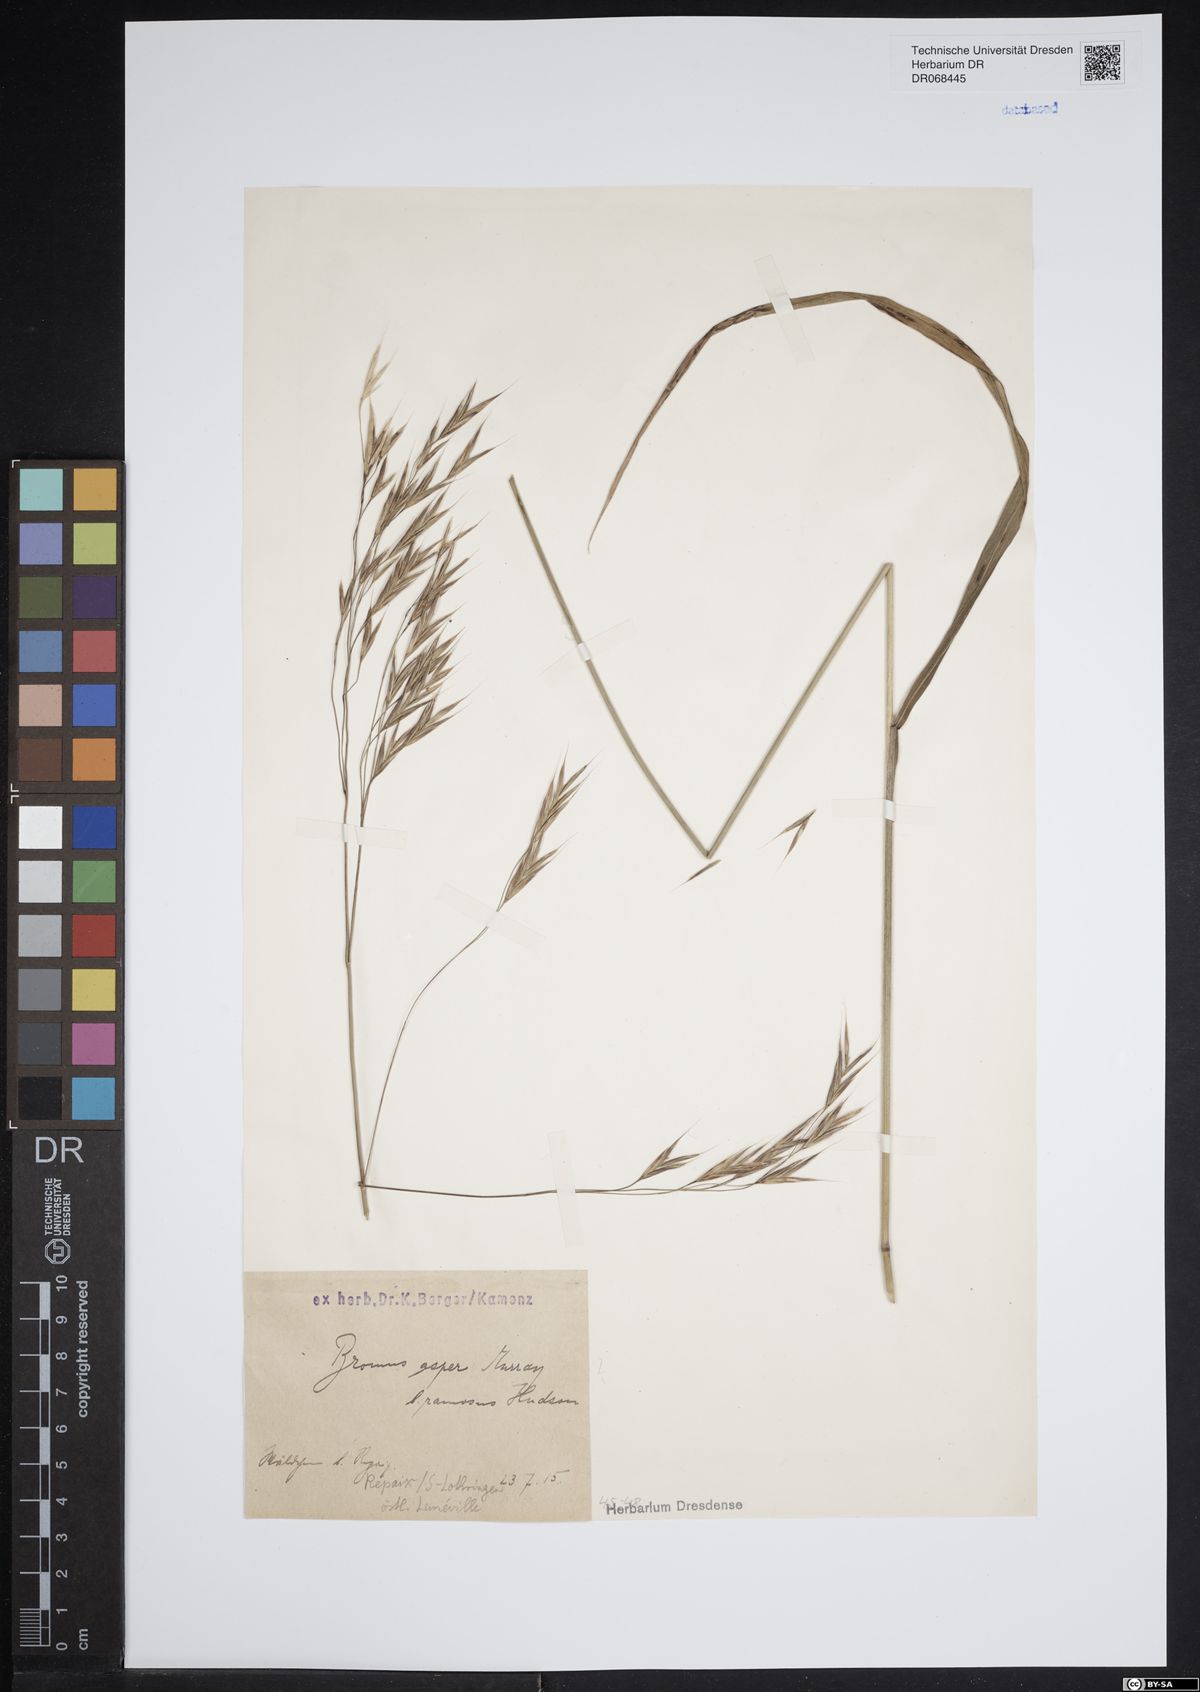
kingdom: Plantae
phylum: Tracheophyta
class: Liliopsida
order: Poales
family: Poaceae
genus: Bromus
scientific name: Bromus ramosus
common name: Hairy brome
